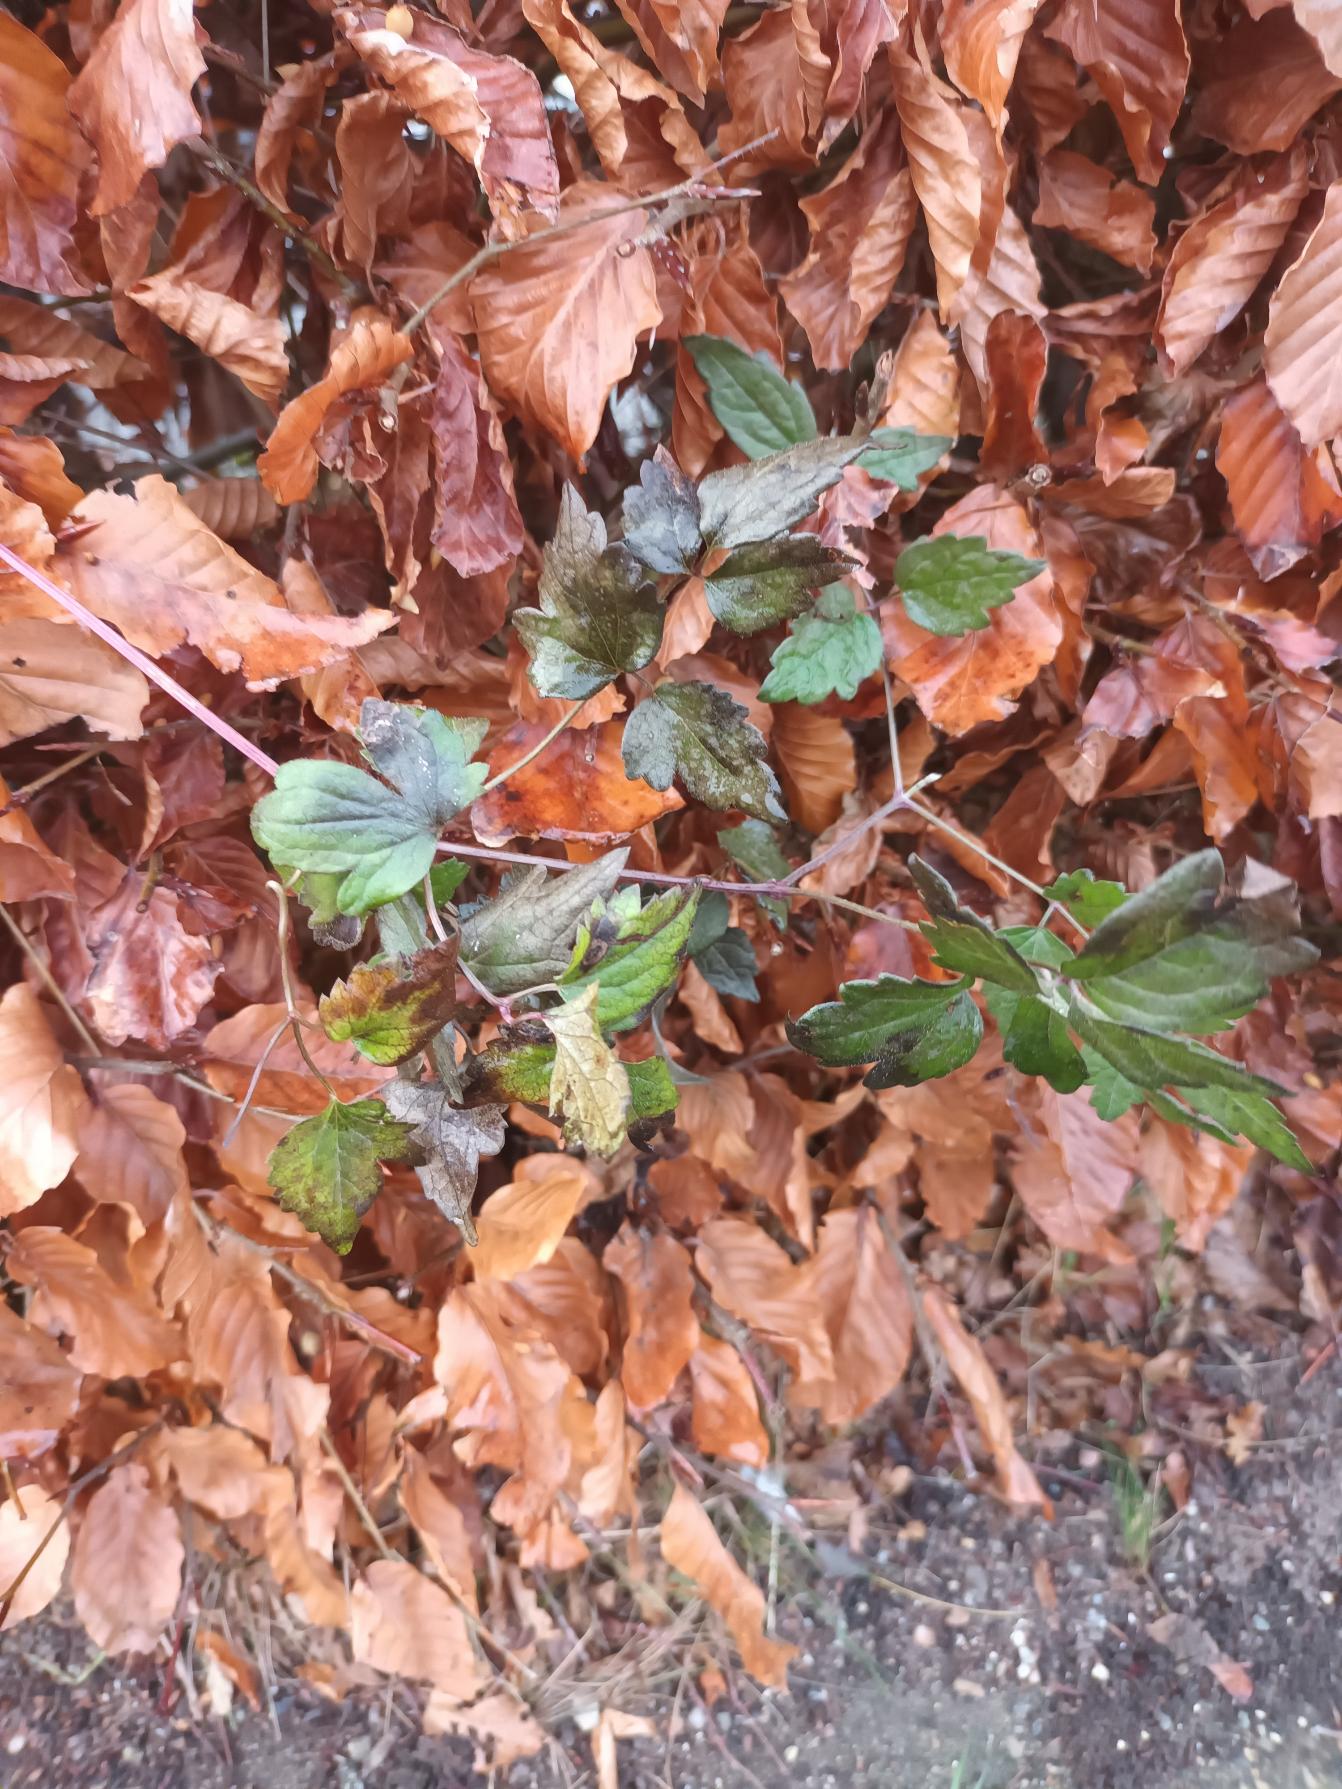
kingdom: Plantae
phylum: Tracheophyta
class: Magnoliopsida
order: Ranunculales
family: Ranunculaceae
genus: Clematis
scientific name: Clematis vitalba
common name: Skovranke
